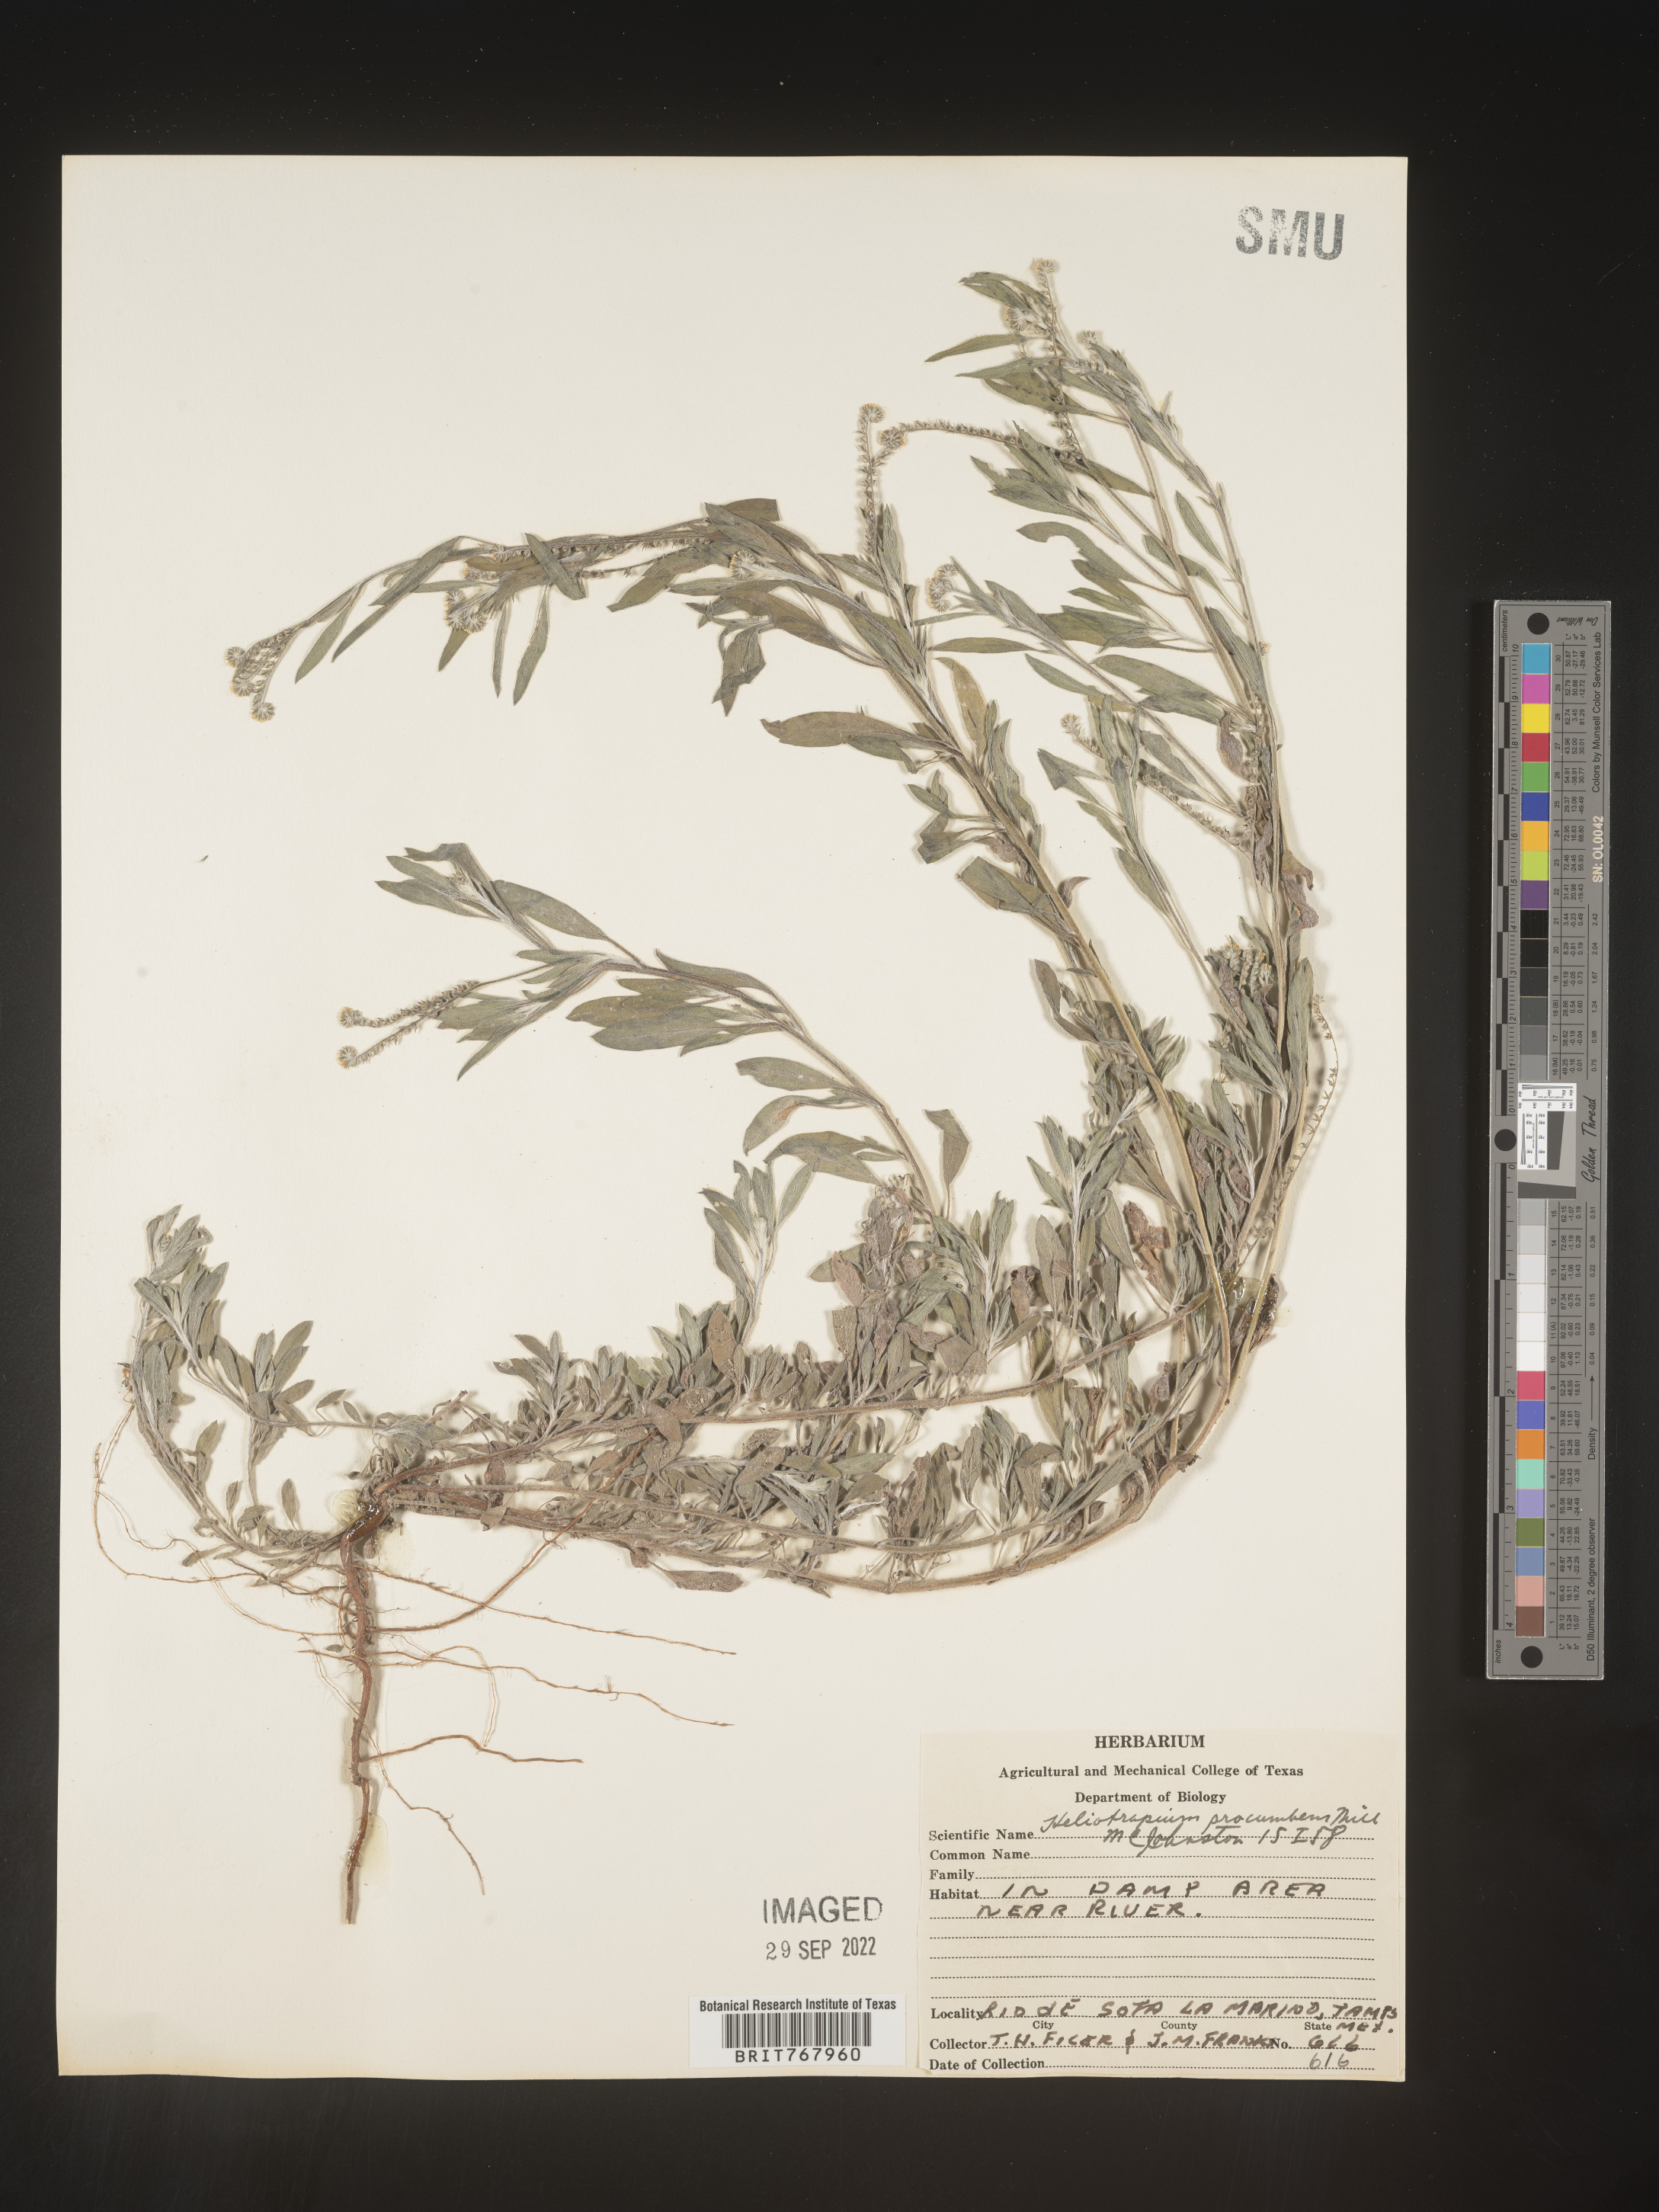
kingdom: Plantae
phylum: Tracheophyta
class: Magnoliopsida
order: Boraginales
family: Heliotropiaceae
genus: Heliotropium
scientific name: Heliotropium
